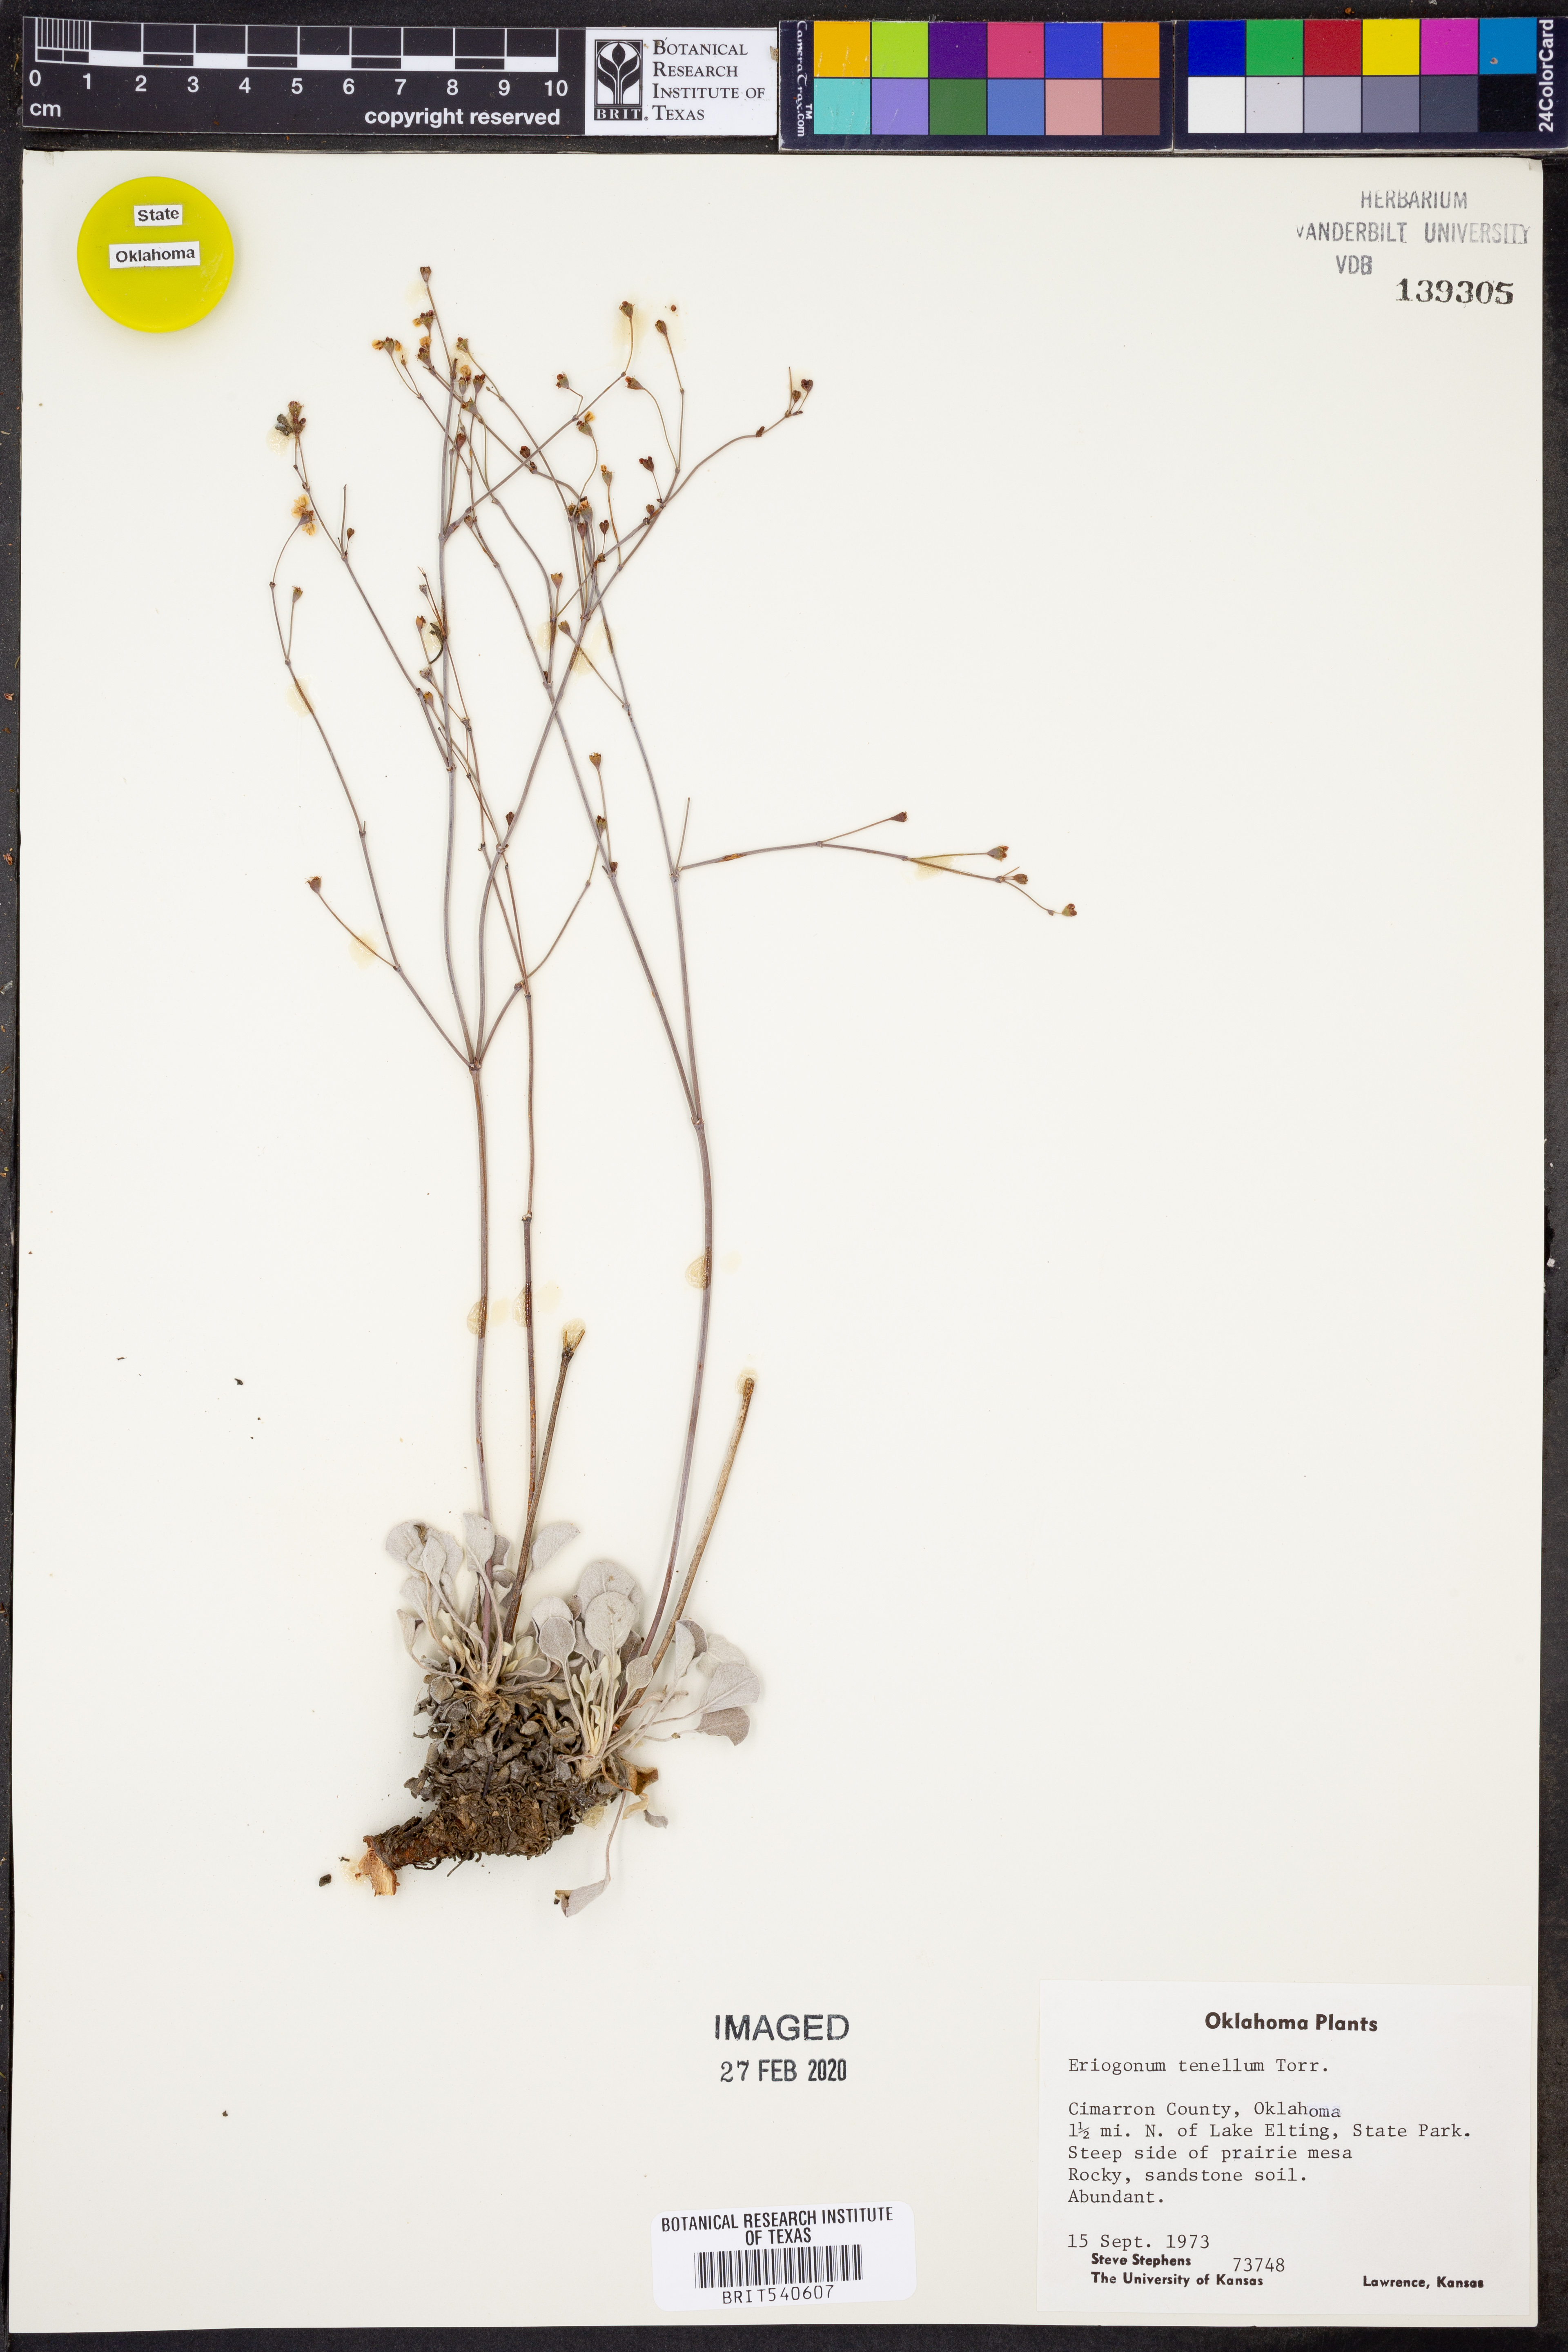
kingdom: Plantae
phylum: Tracheophyta
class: Magnoliopsida
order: Caryophyllales
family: Polygonaceae
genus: Eriogonum
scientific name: Eriogonum tenellum
